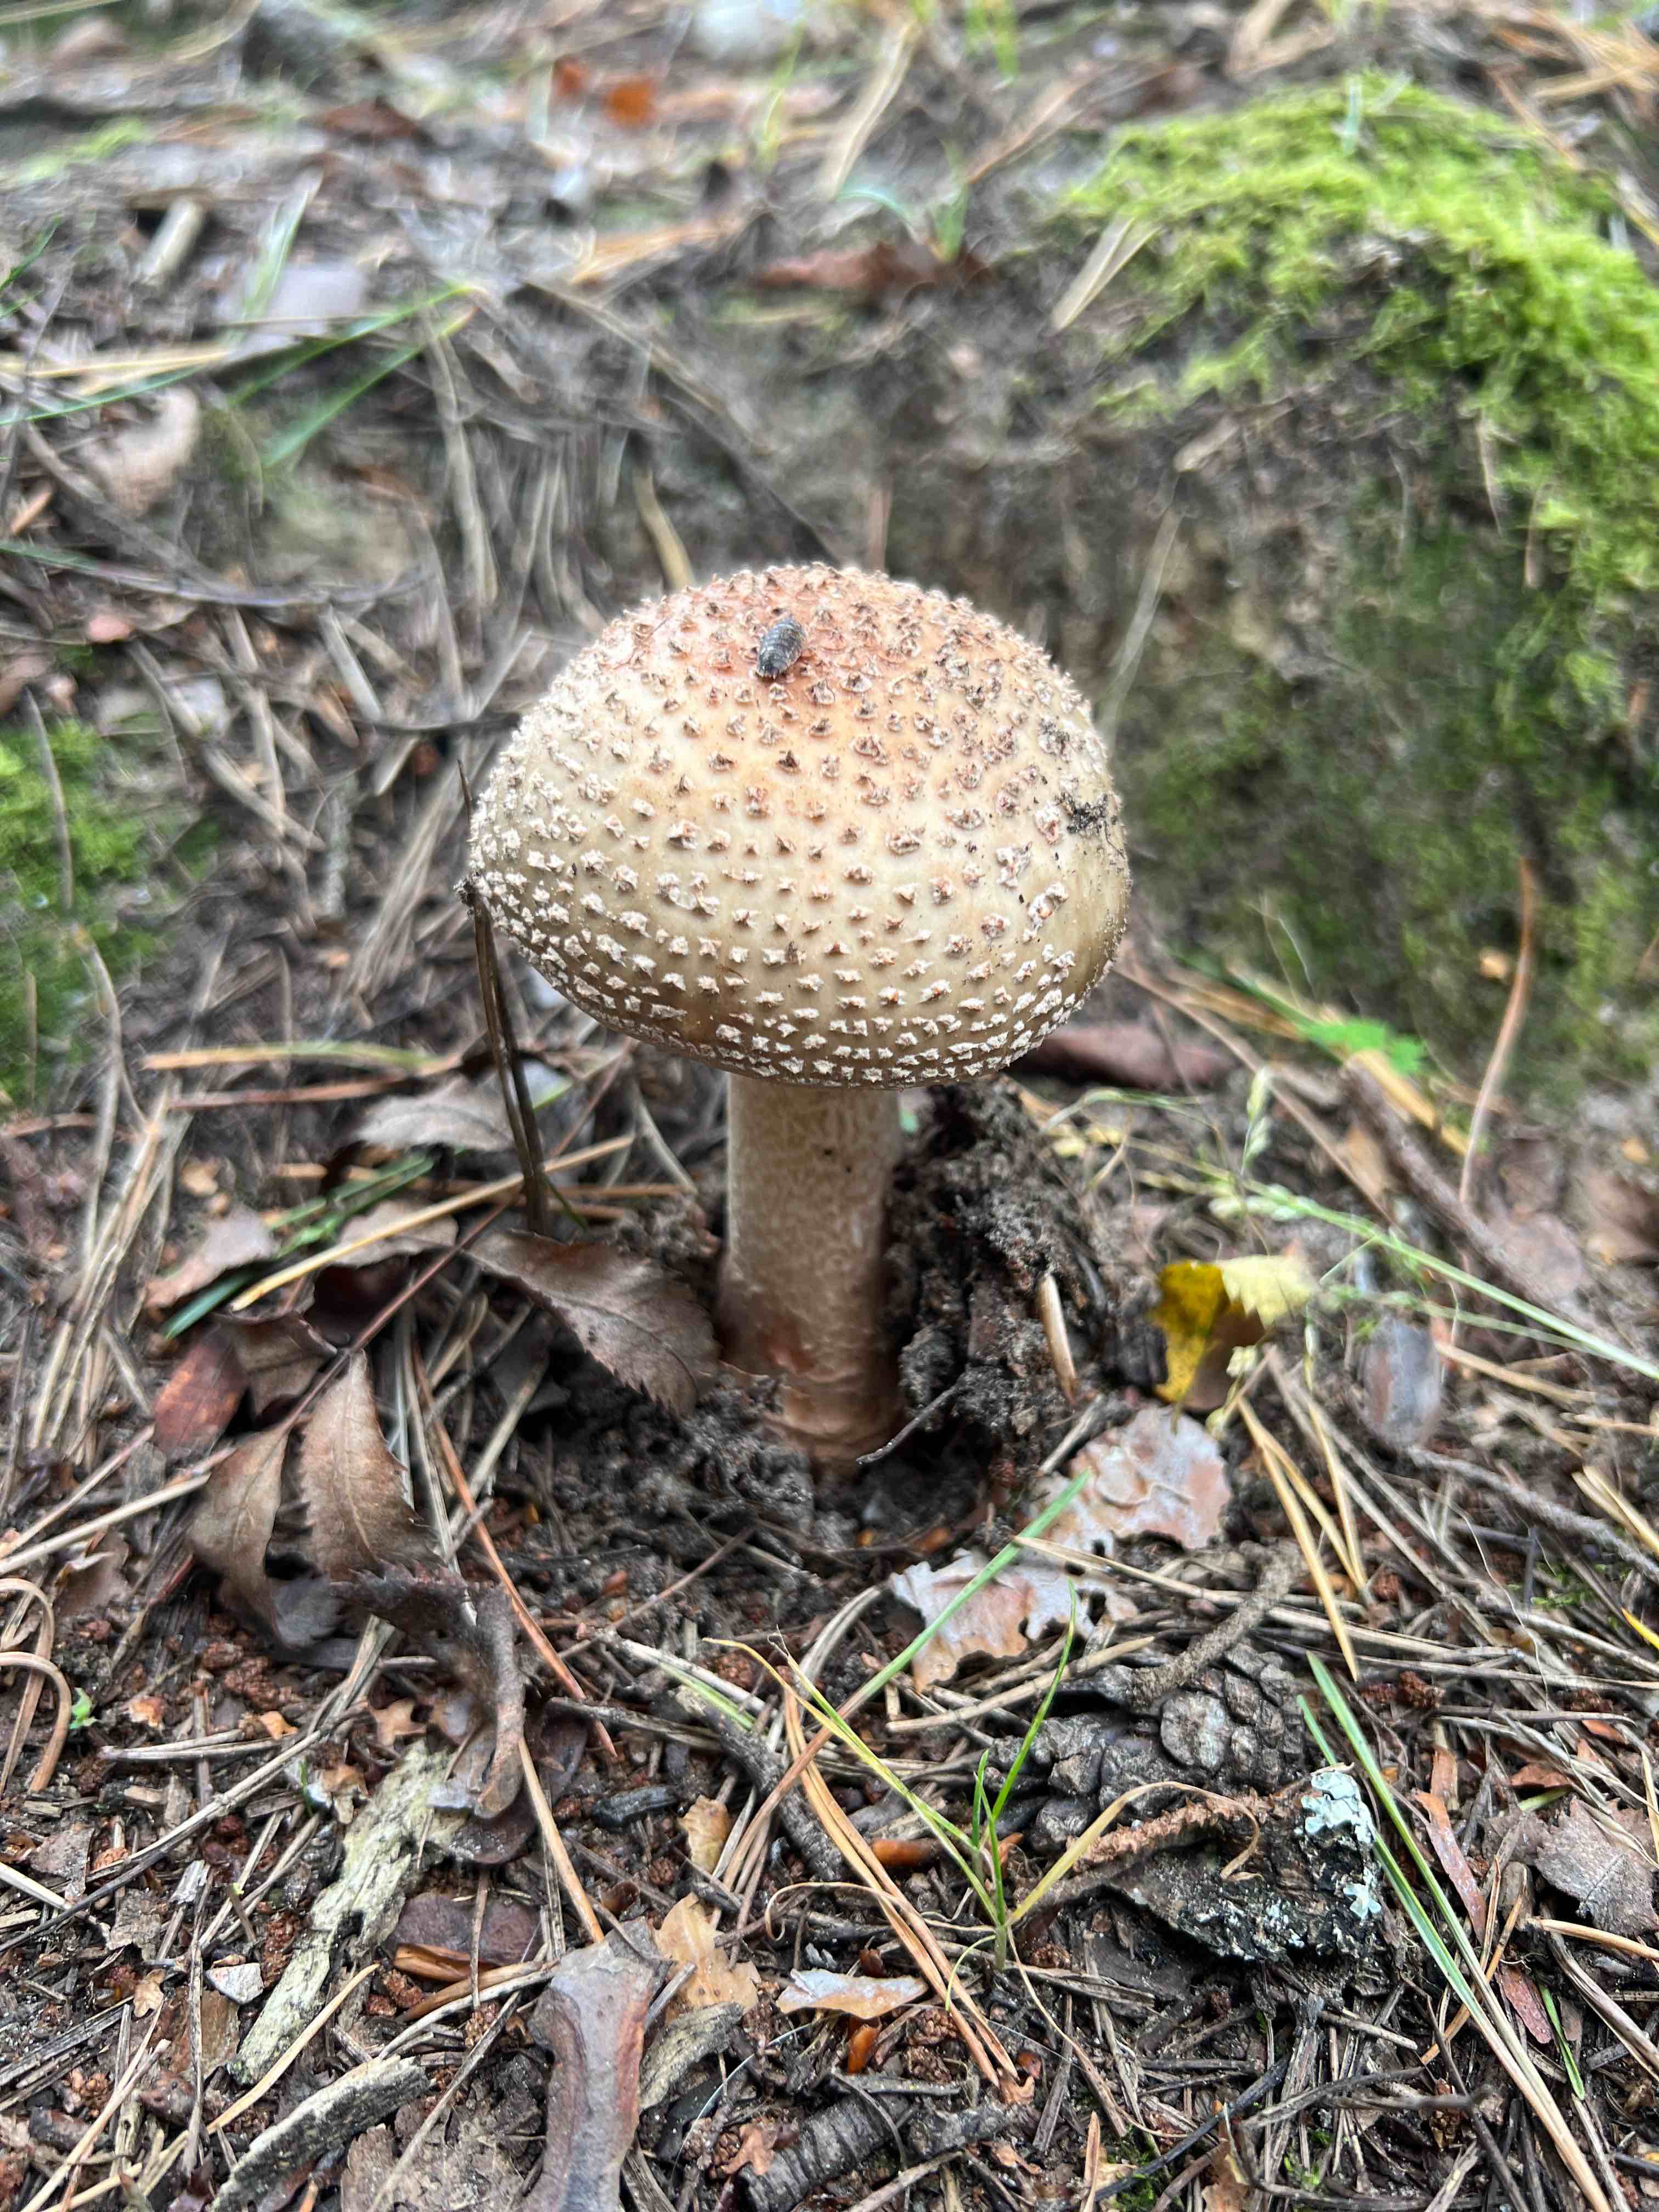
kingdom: Fungi
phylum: Basidiomycota
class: Agaricomycetes
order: Agaricales
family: Amanitaceae
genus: Amanita
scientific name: Amanita rubescens
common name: rødmende fluesvamp
